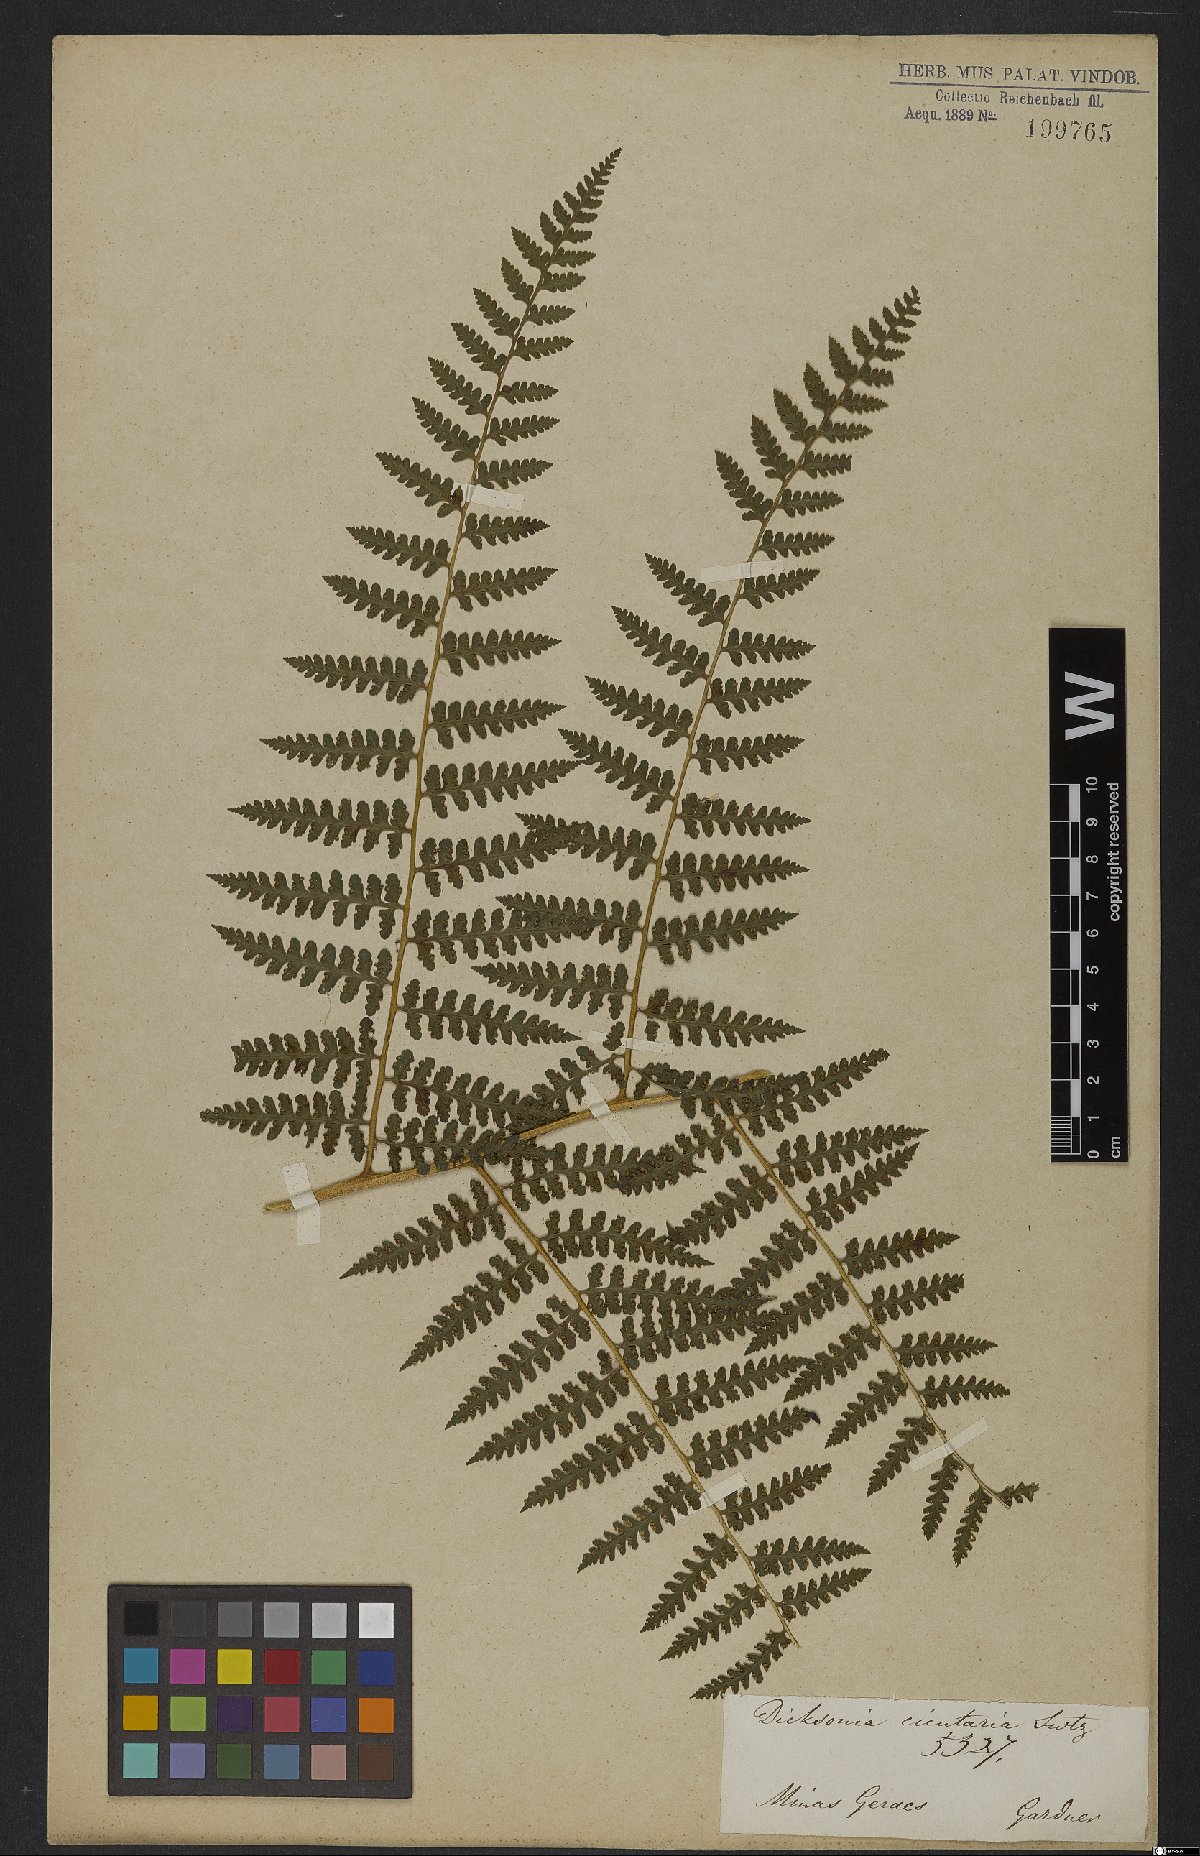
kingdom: Plantae
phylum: Tracheophyta
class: Polypodiopsida
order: Polypodiales
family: Dennstaedtiaceae
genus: Dennstaedtia
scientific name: Dennstaedtia cicutaria
